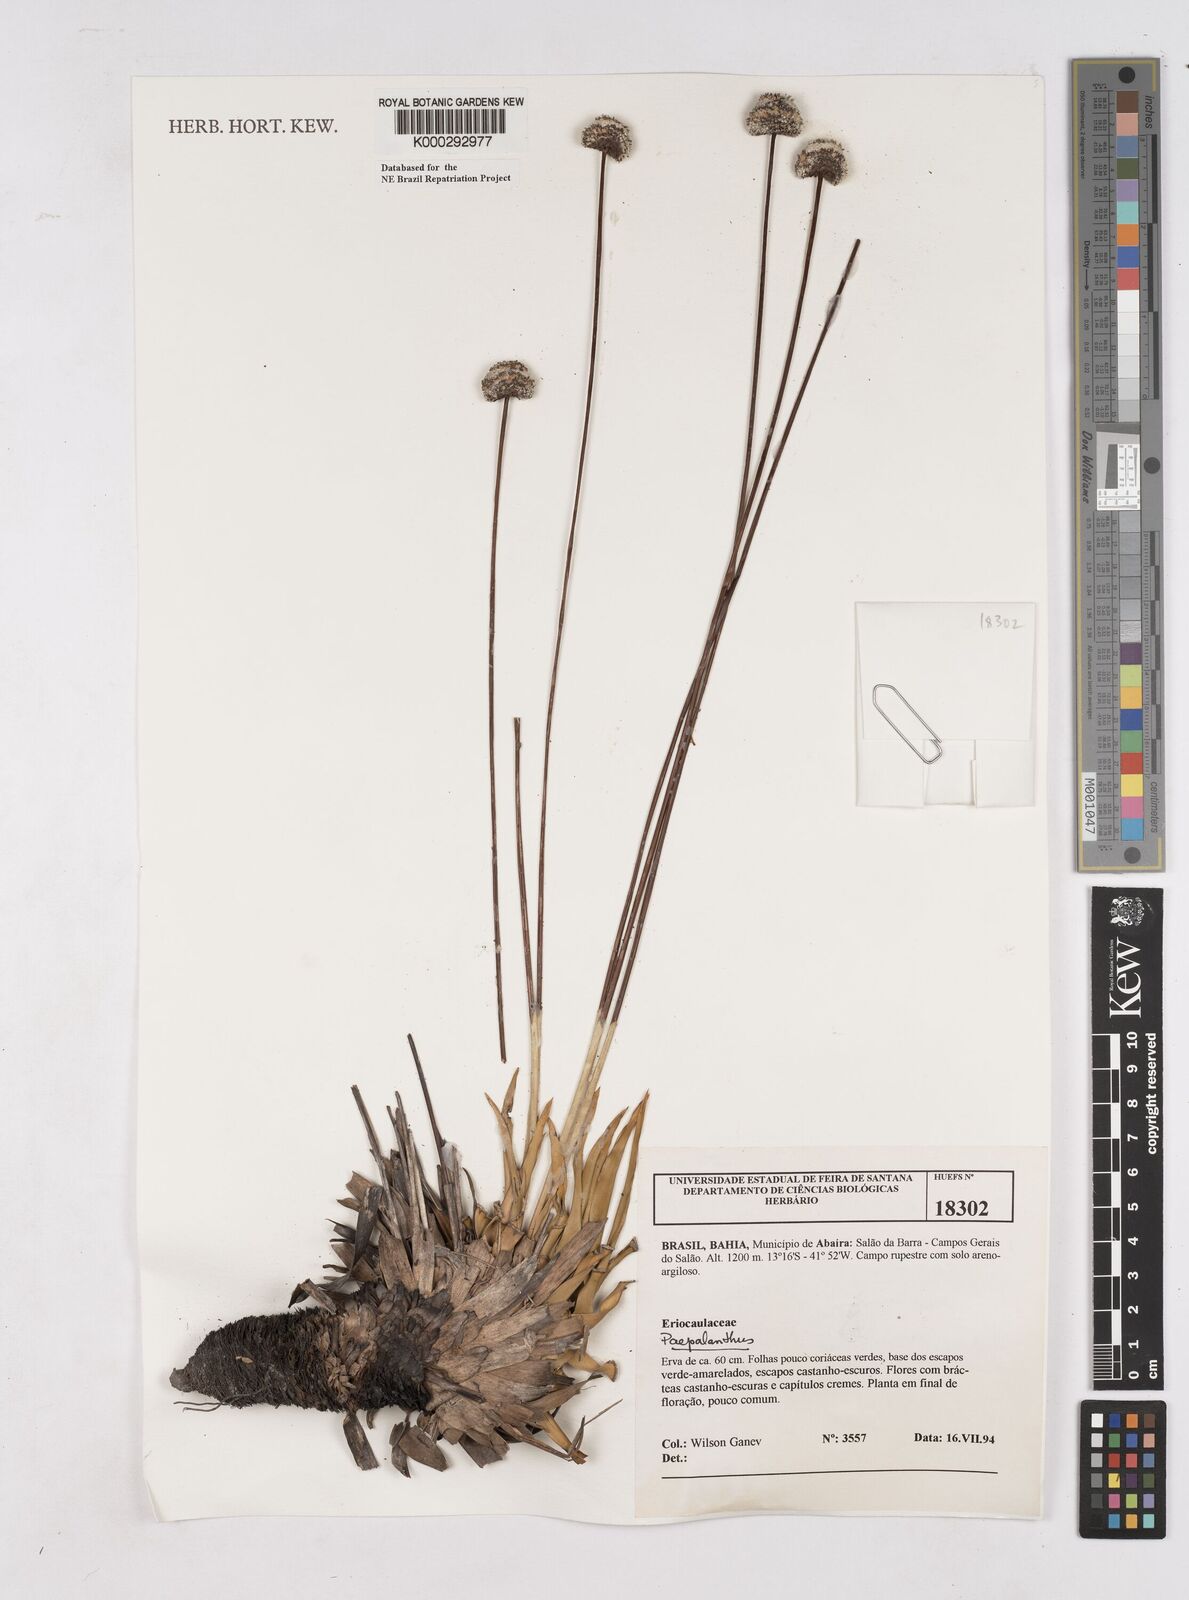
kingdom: Plantae
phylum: Tracheophyta
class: Liliopsida
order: Poales
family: Eriocaulaceae
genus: Paepalanthus
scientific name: Paepalanthus
